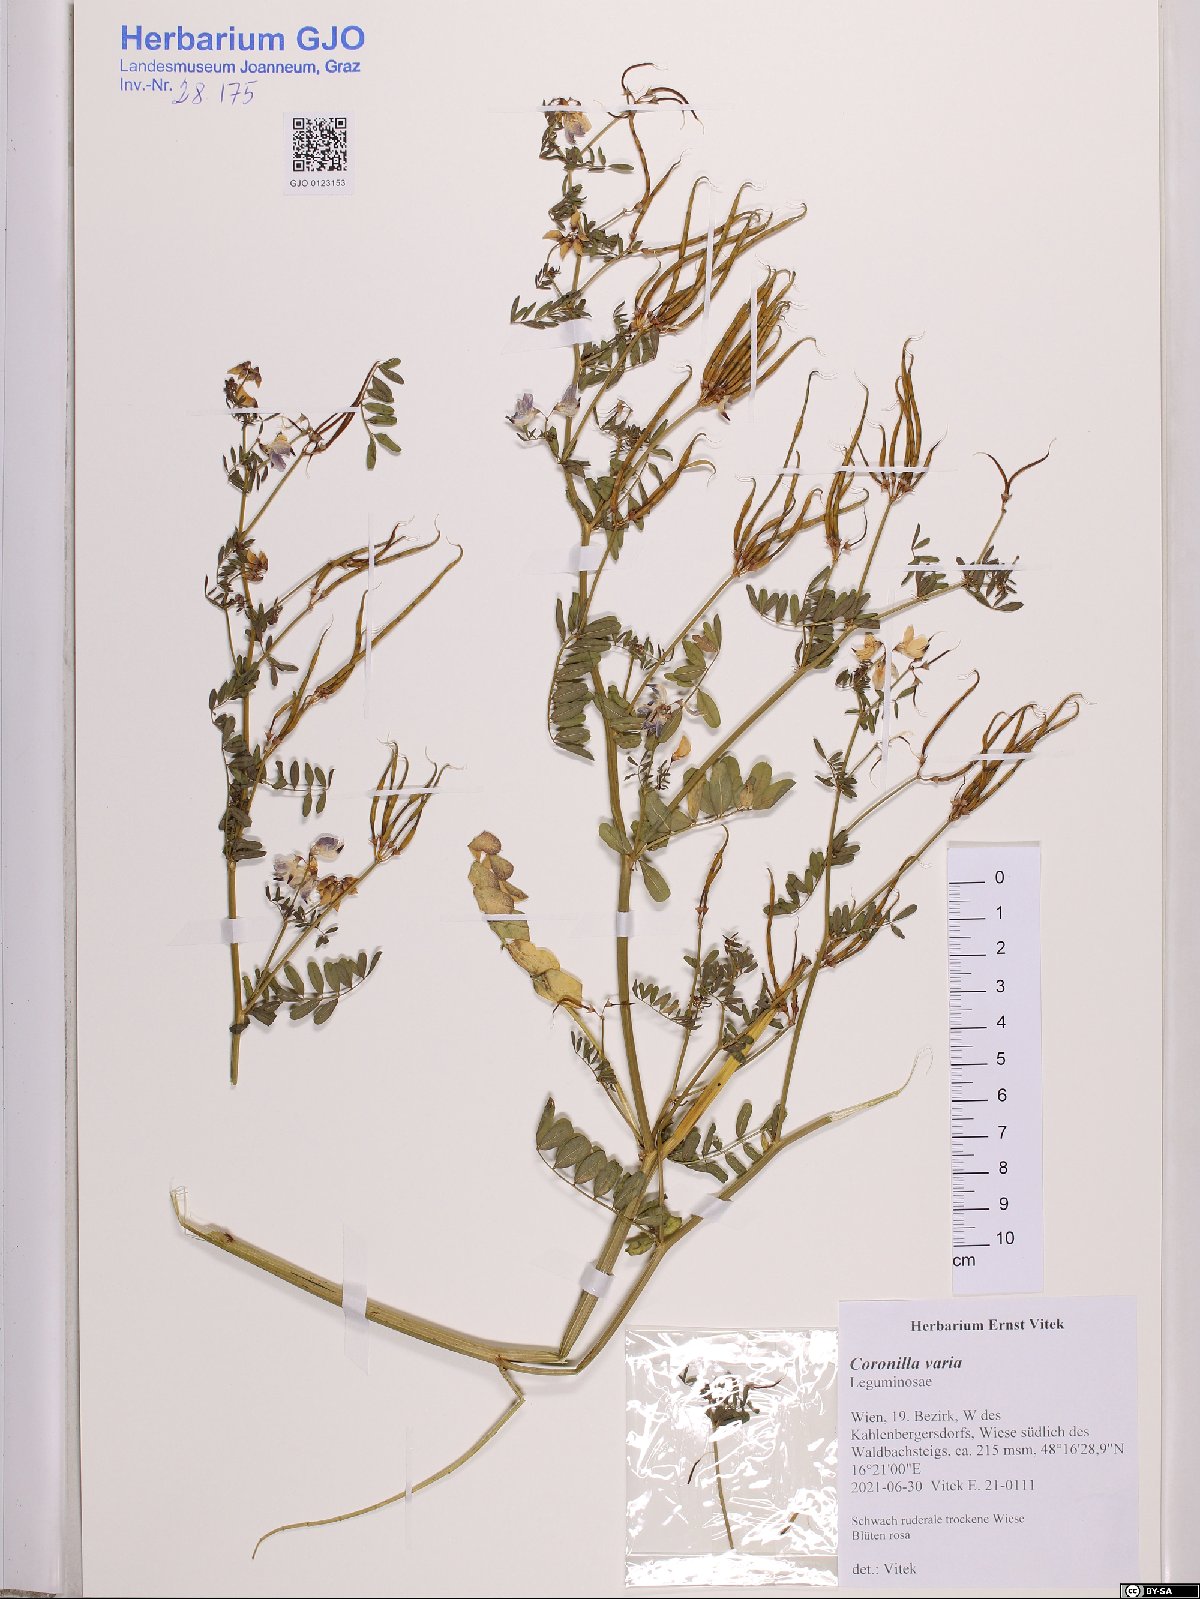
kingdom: Plantae
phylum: Tracheophyta
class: Magnoliopsida
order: Fabales
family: Fabaceae
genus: Coronilla
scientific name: Coronilla varia
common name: Crownvetch
